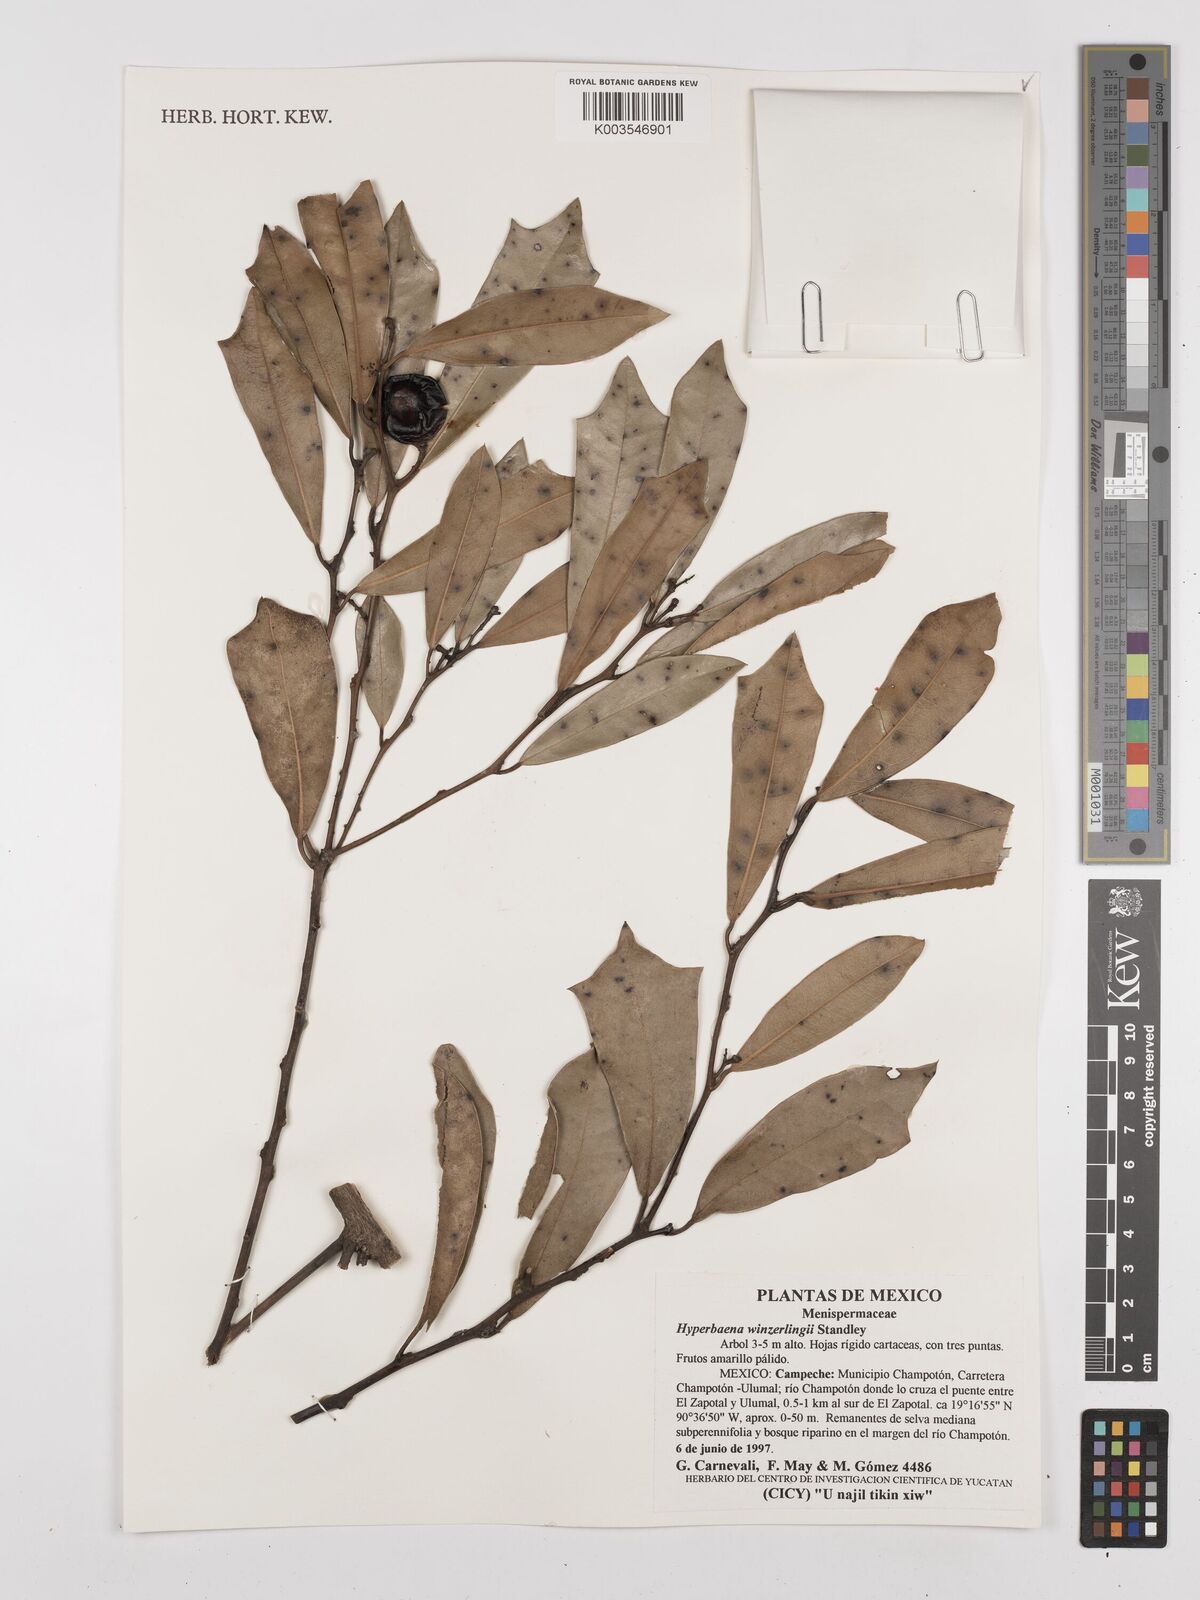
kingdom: Plantae
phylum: Tracheophyta
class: Magnoliopsida
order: Ranunculales
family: Menispermaceae
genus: Hyperbaena
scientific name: Hyperbaena winzerlingii
